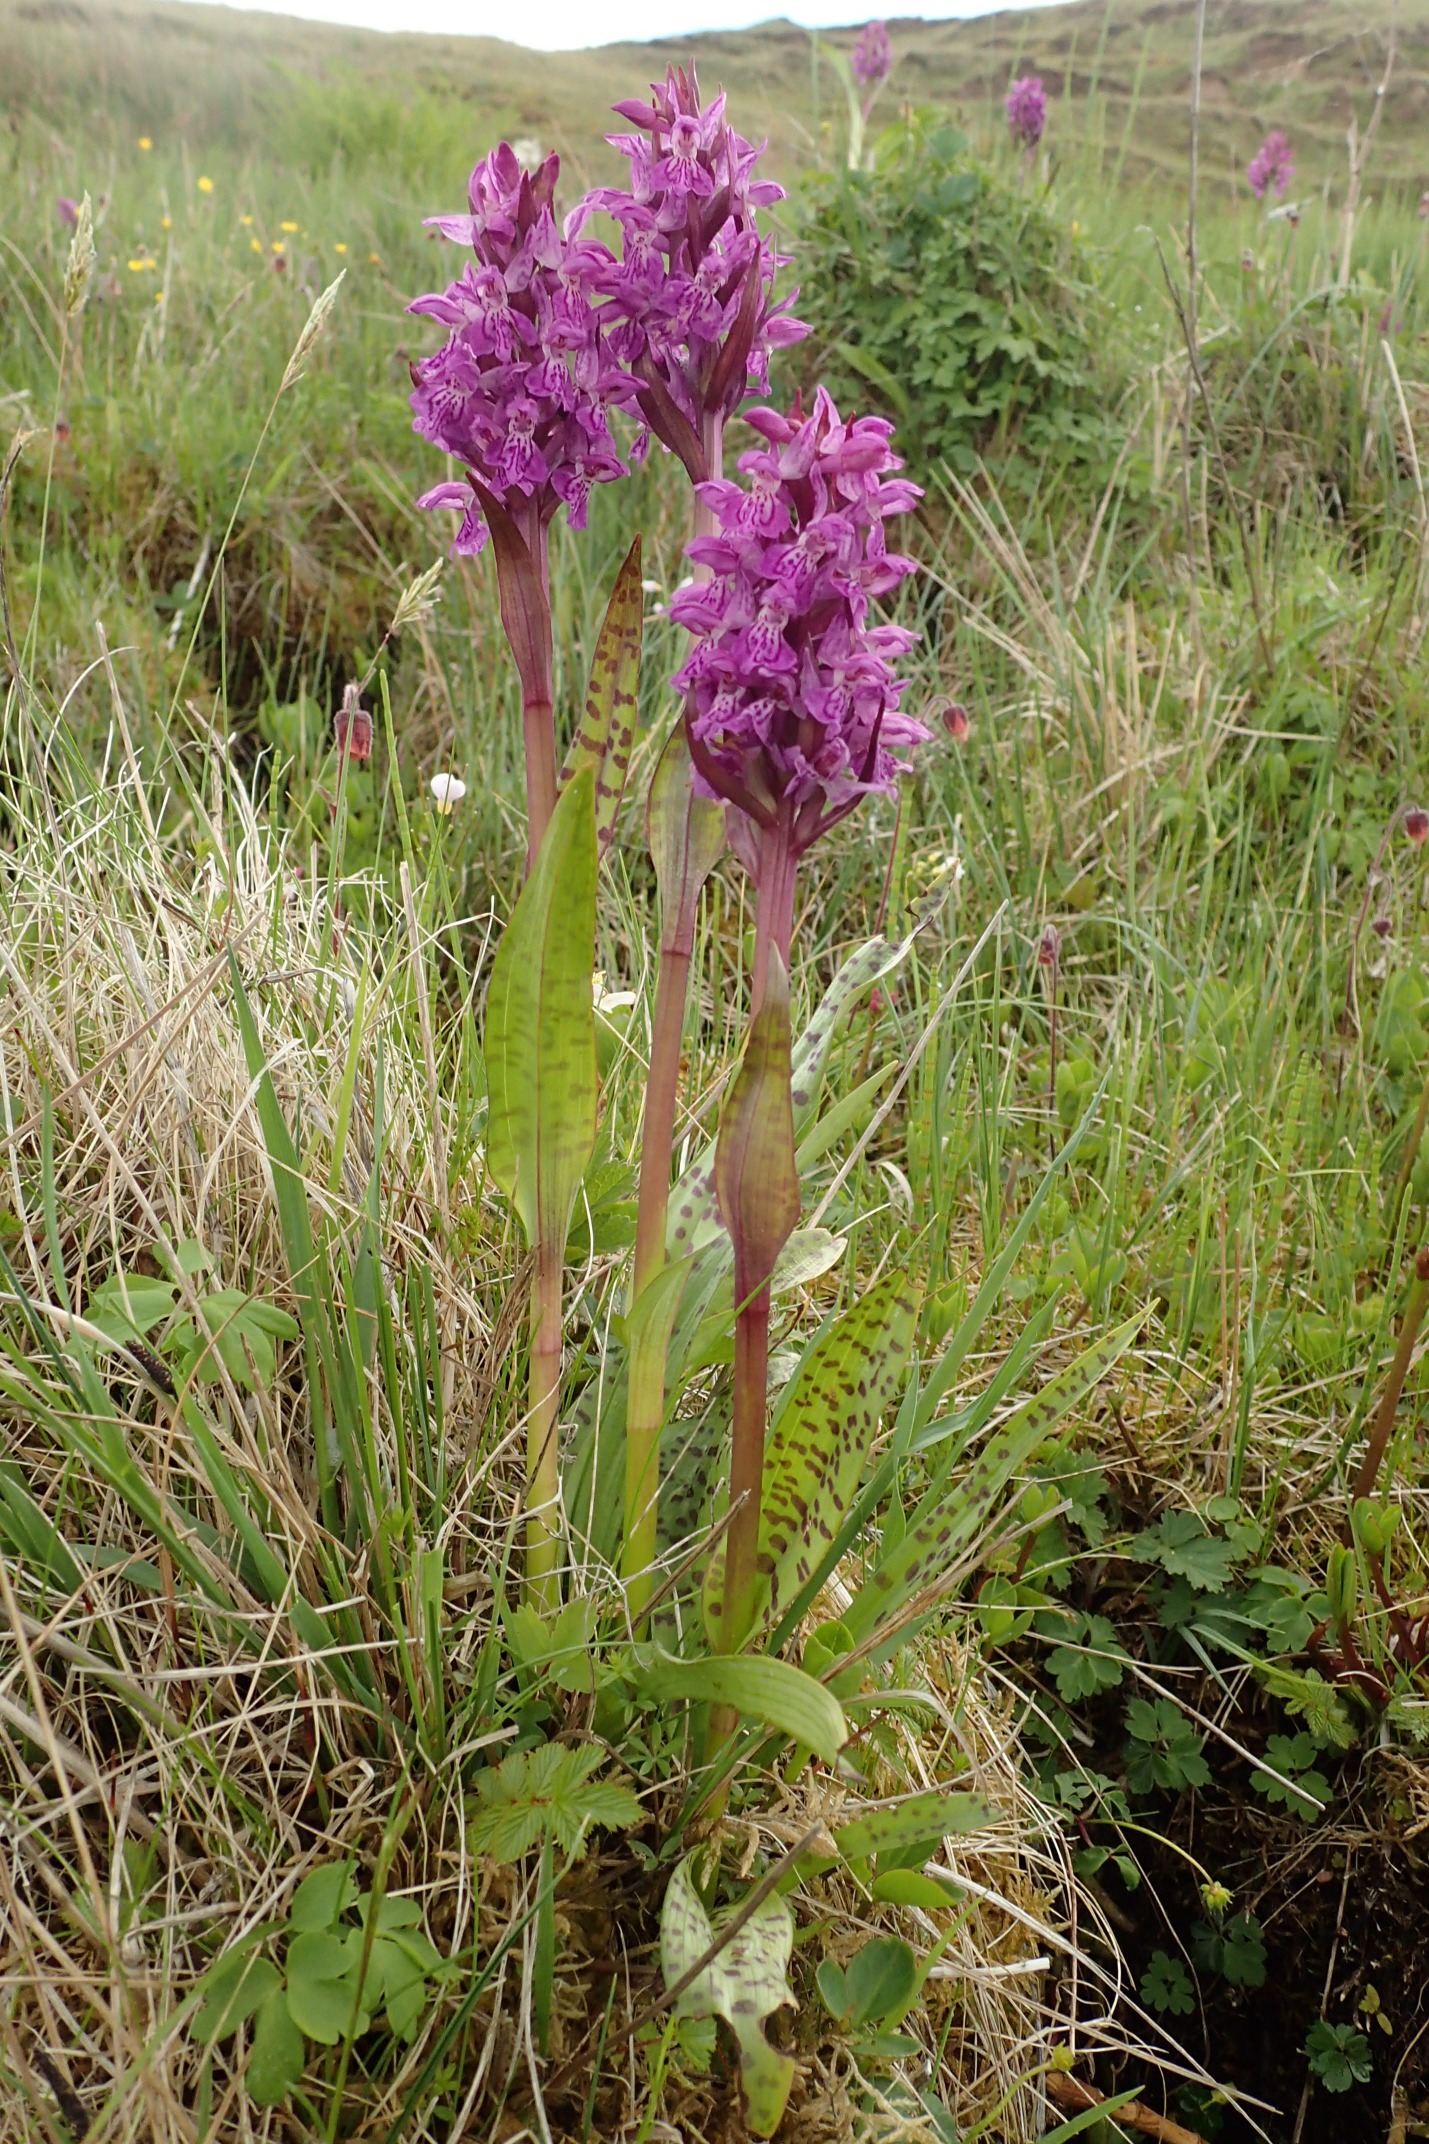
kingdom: Plantae
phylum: Tracheophyta
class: Liliopsida
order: Asparagales
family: Orchidaceae
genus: Dactylorhiza
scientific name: Dactylorhiza majalis
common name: Maj-gøgeurt
